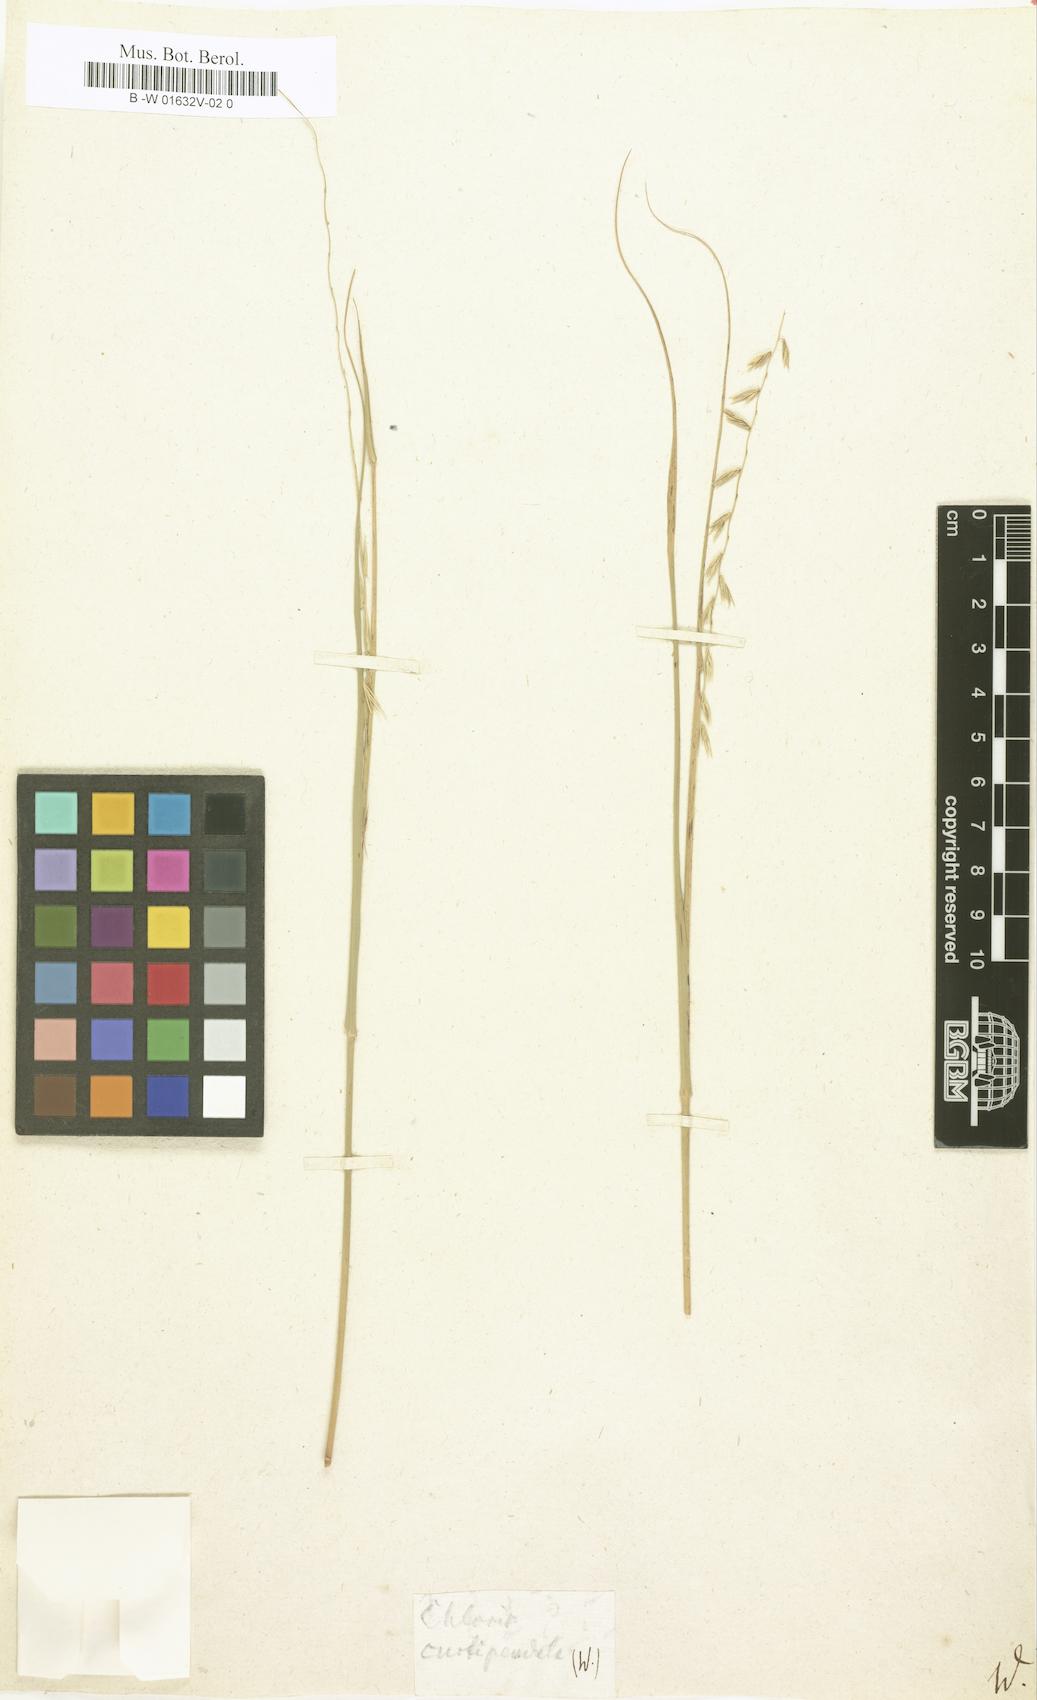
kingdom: Plantae
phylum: Tracheophyta
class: Magnoliopsida
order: Asterales
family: Asteraceae
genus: Nestlera
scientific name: Nestlera
